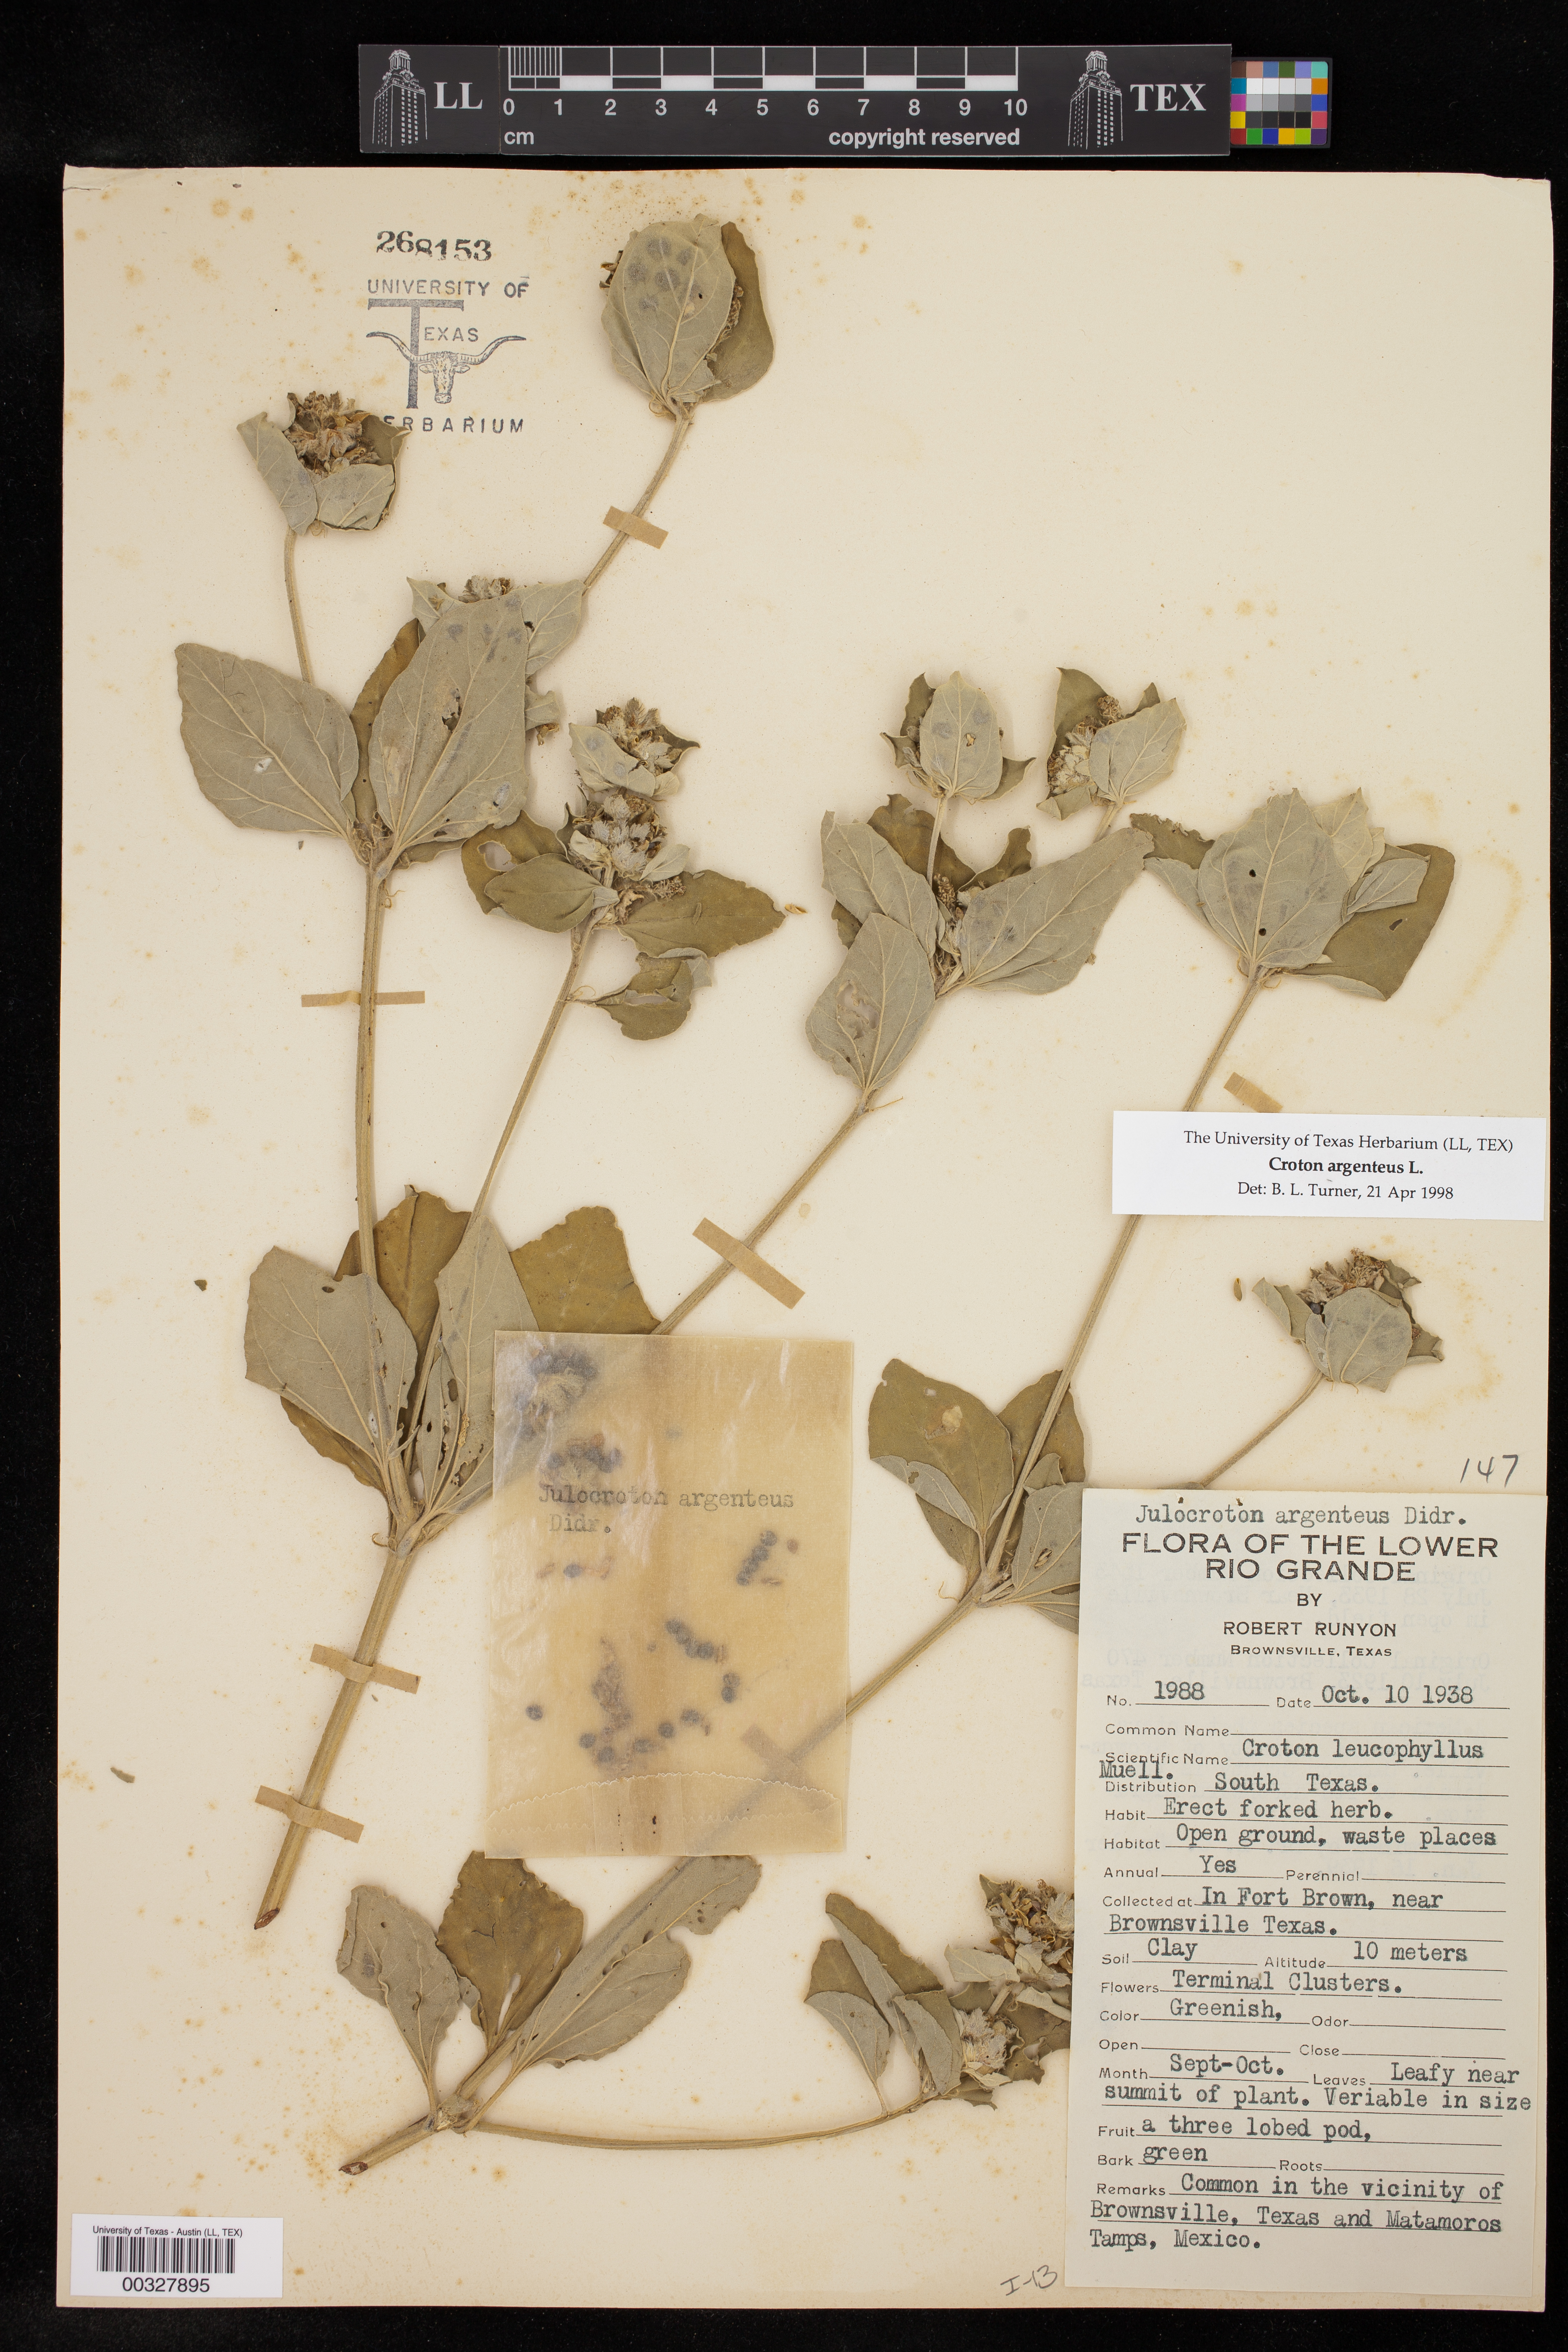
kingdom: Plantae
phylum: Tracheophyta
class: Magnoliopsida
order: Malpighiales
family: Euphorbiaceae
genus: Croton
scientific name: Croton argenteus
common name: Silver july croton
